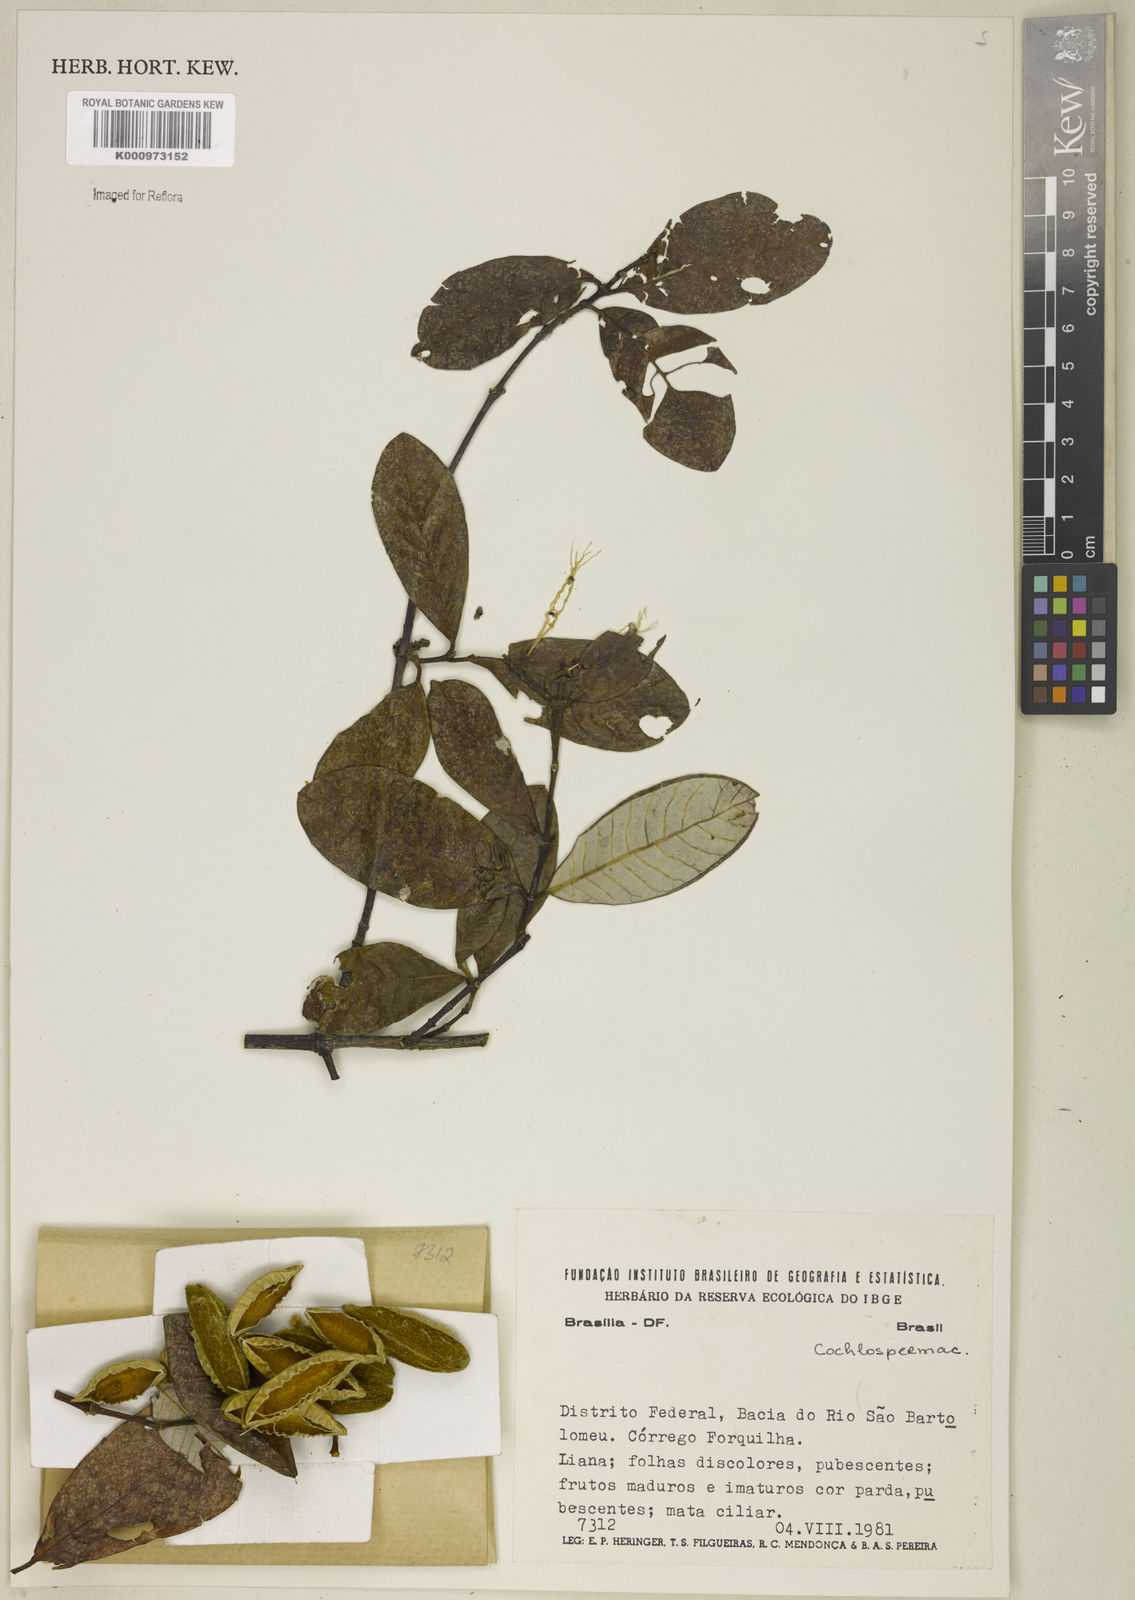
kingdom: Plantae
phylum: Tracheophyta
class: Magnoliopsida
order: Malvales
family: Cochlospermaceae
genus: Cochlospermum
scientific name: Cochlospermum
